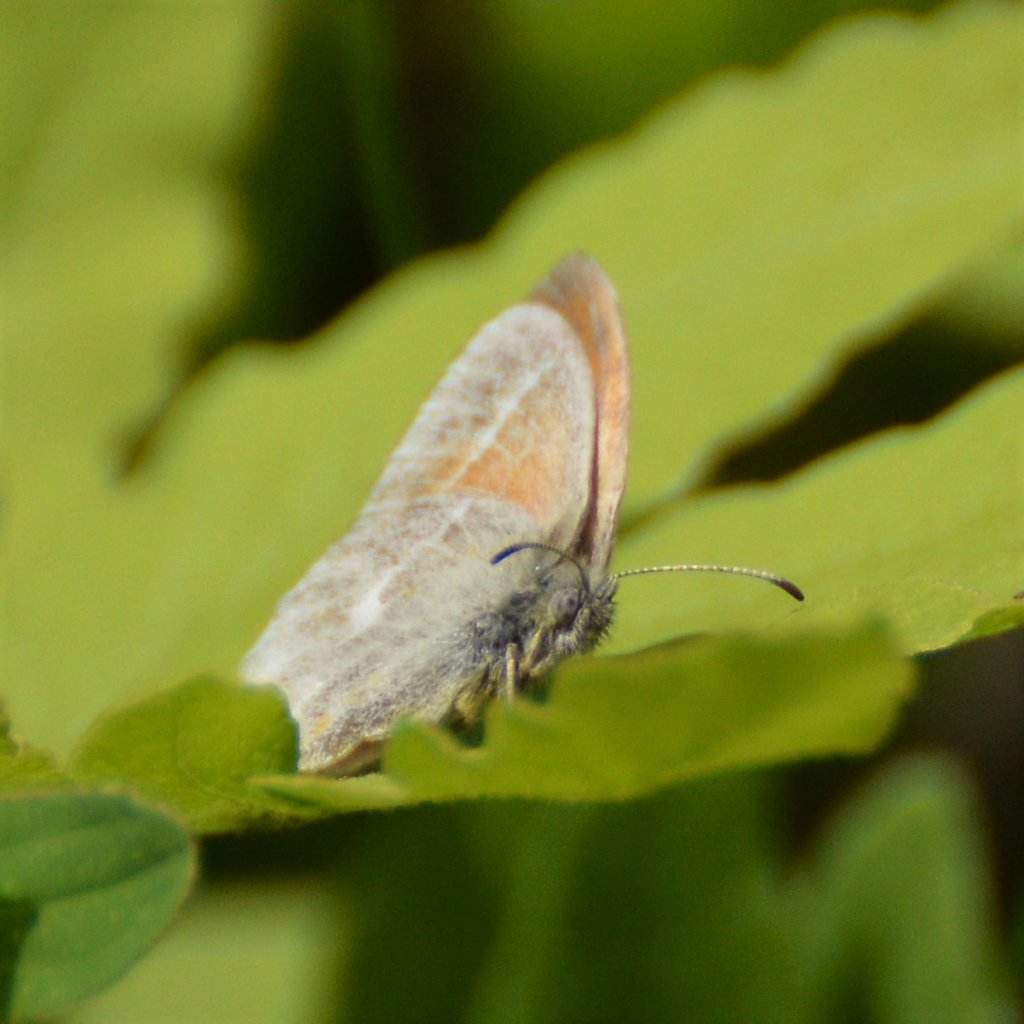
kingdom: Animalia
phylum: Arthropoda
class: Insecta
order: Lepidoptera
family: Nymphalidae
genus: Coenonympha
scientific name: Coenonympha tullia
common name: Large Heath
